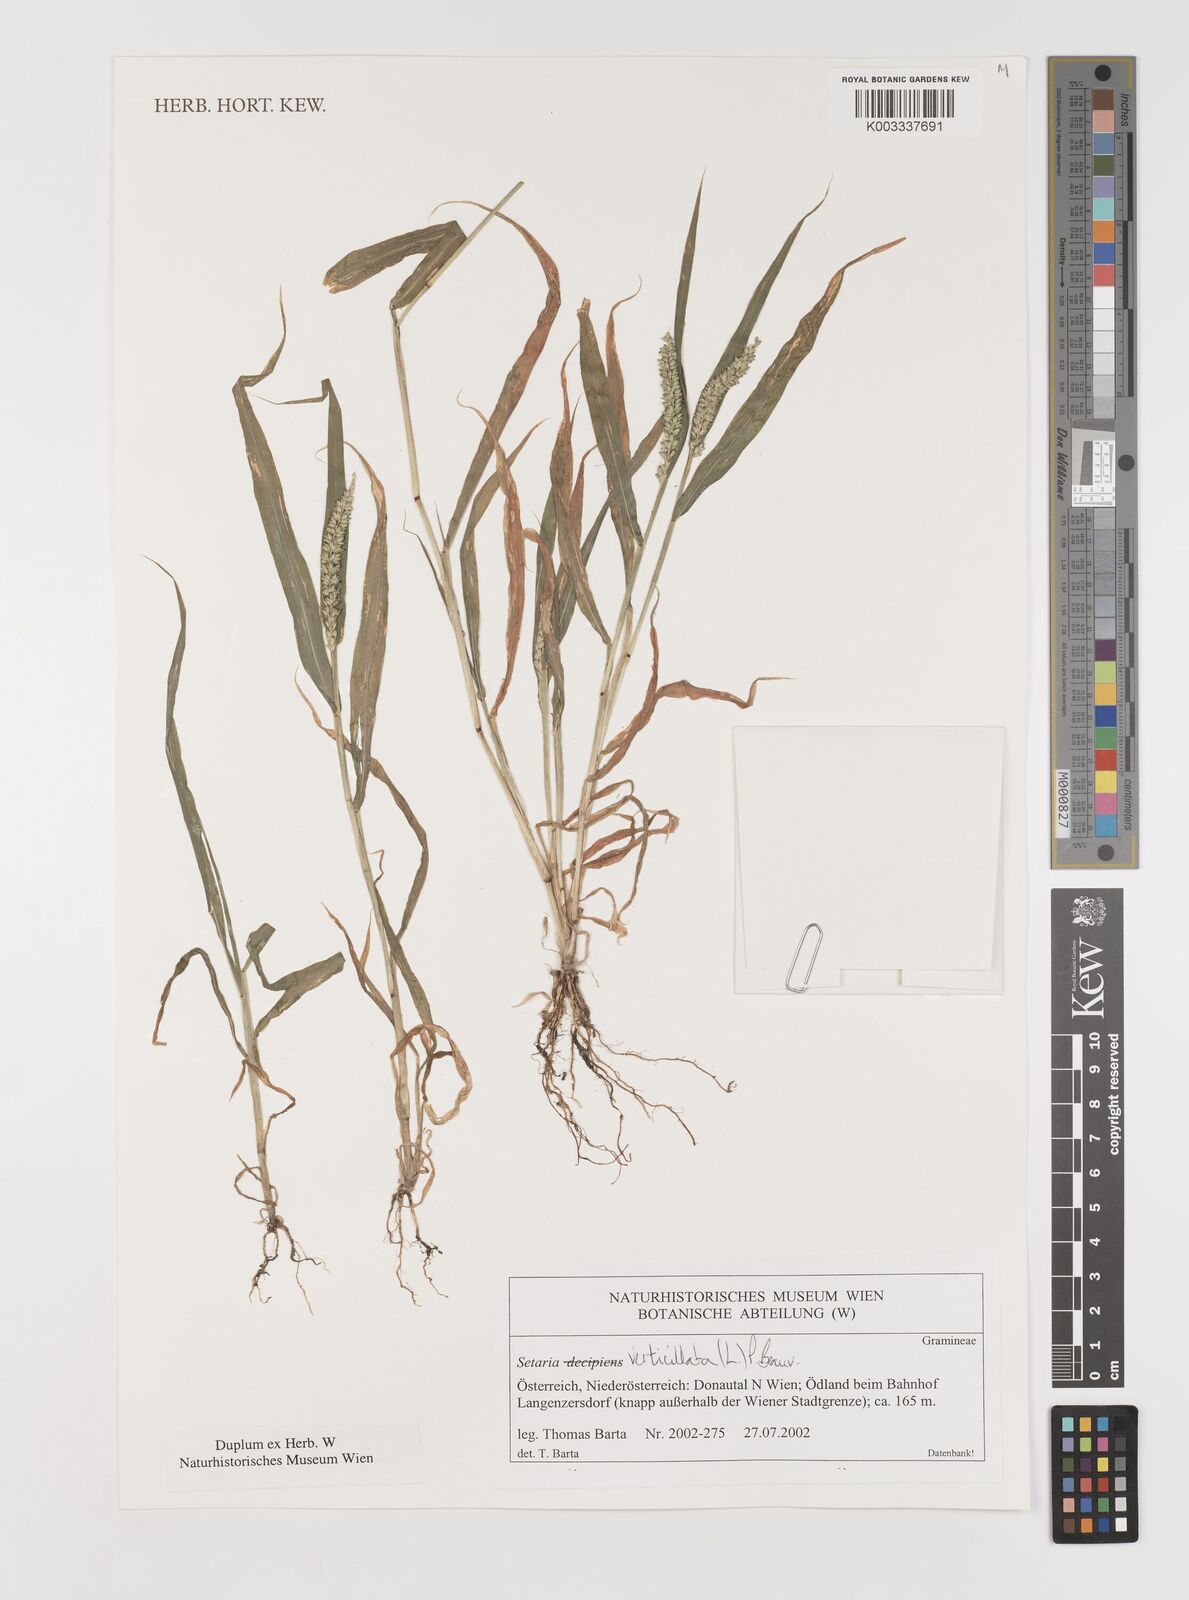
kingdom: Plantae
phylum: Tracheophyta
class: Liliopsida
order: Poales
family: Poaceae
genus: Setaria
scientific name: Setaria verticillata
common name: Hooked bristlegrass
